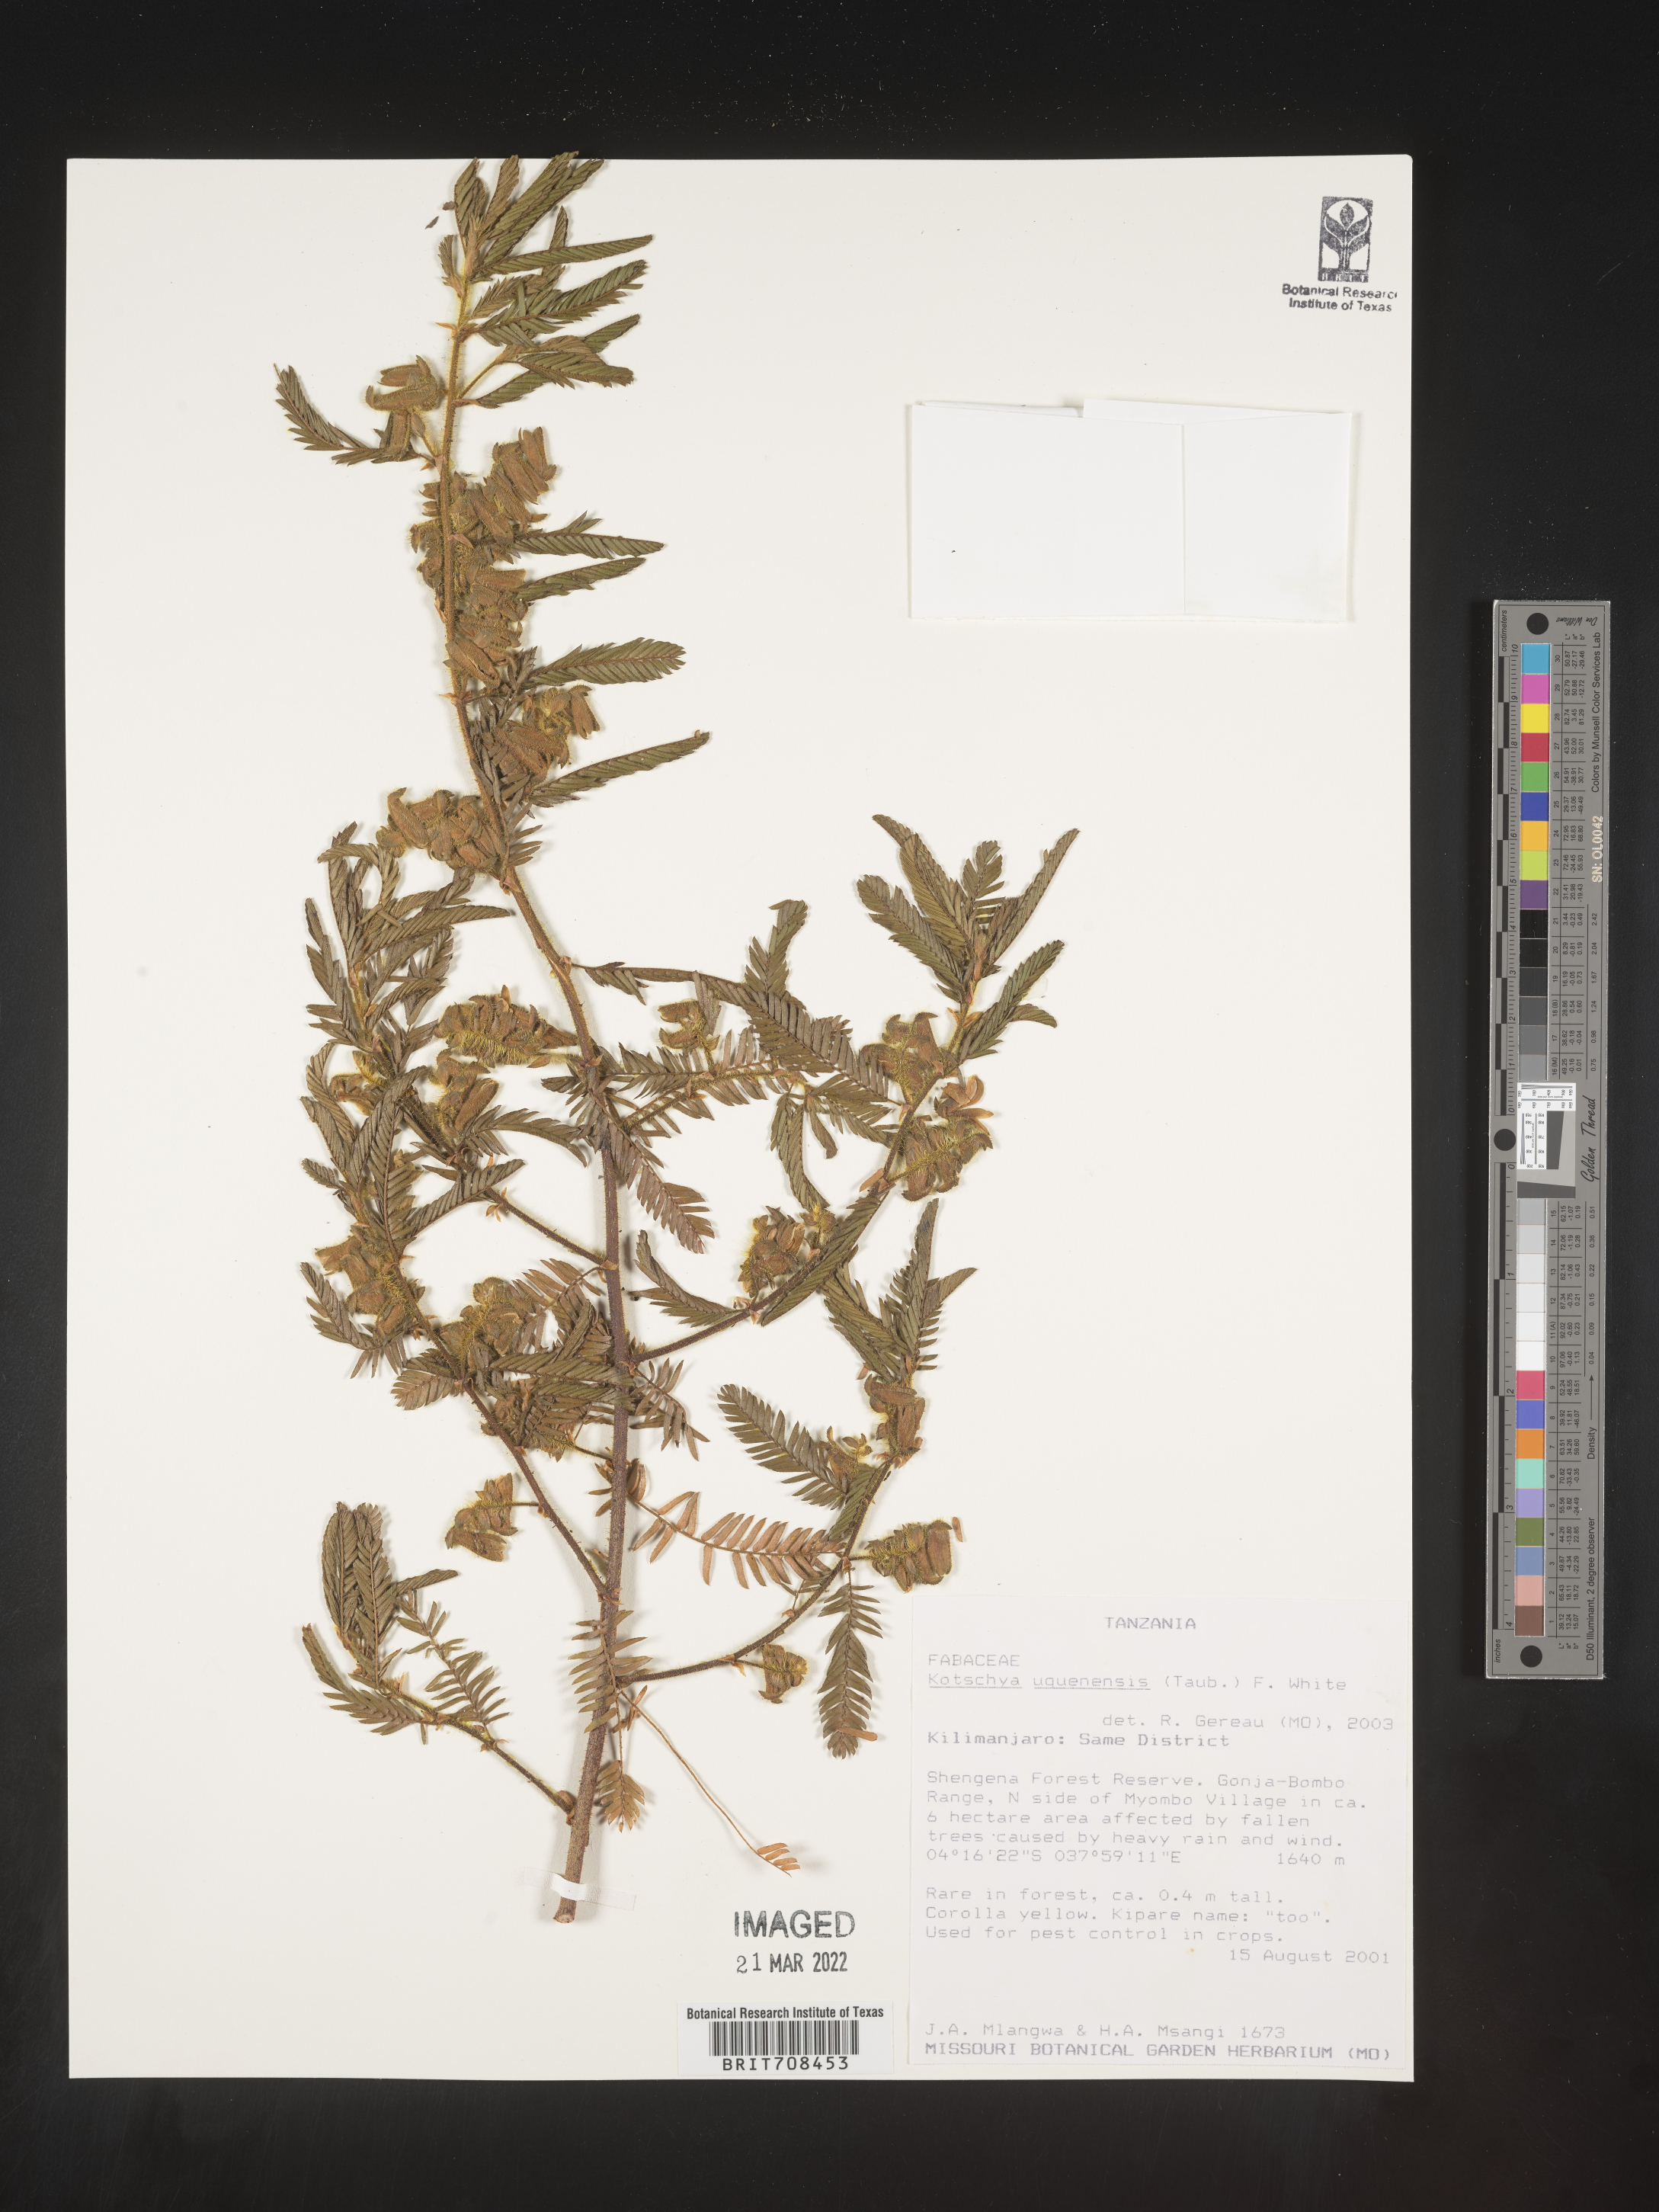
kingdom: Plantae
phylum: Tracheophyta
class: Magnoliopsida
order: Fabales
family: Fabaceae
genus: Kotschya
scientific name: Kotschya
